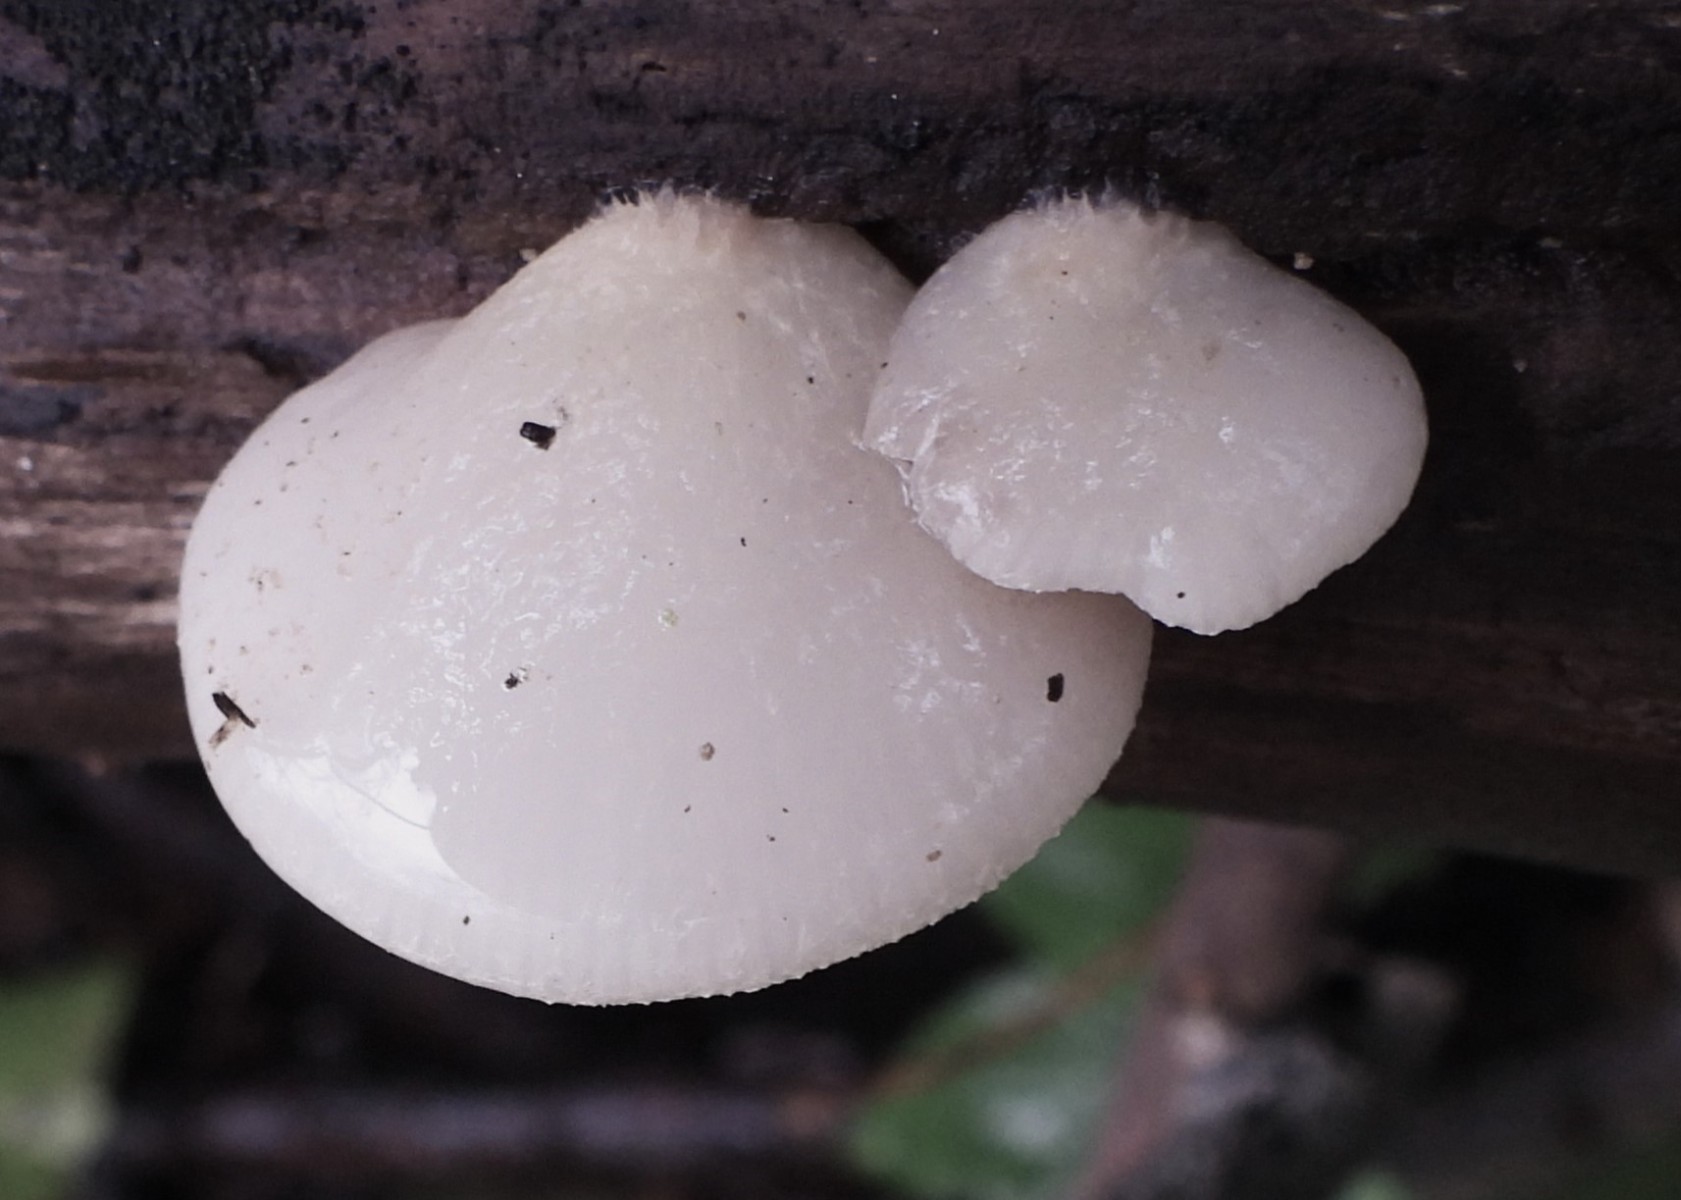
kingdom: Fungi
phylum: Basidiomycota
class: Agaricomycetes
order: Agaricales
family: Crepidotaceae
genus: Crepidotus
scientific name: Crepidotus mollis
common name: blød muslingesvamp
